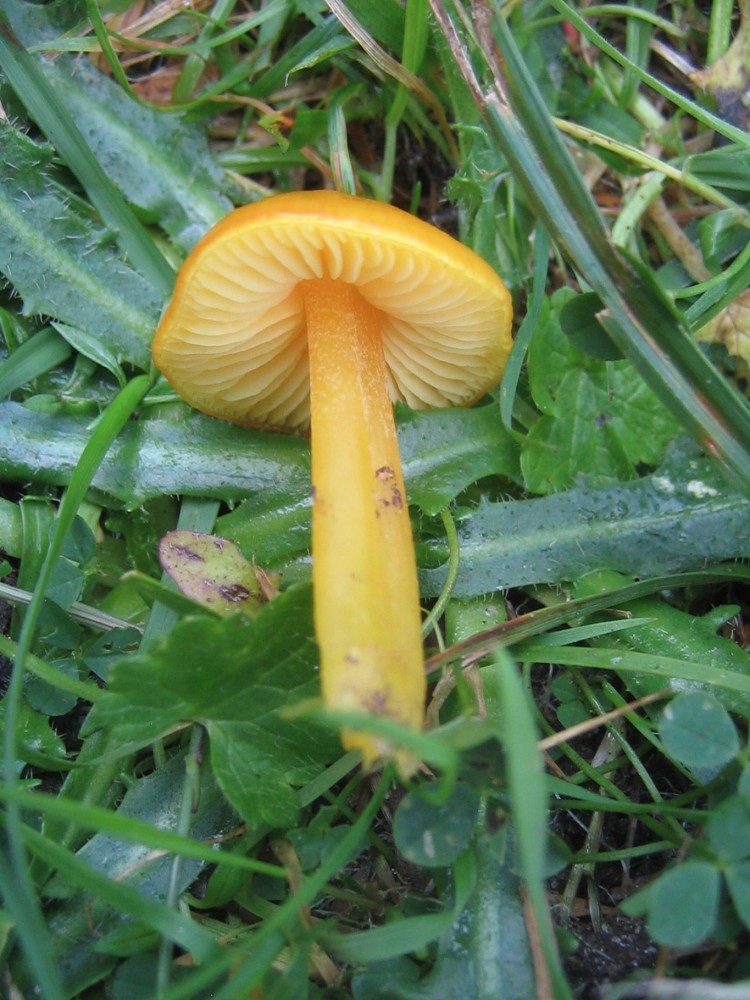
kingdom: Fungi
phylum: Basidiomycota
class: Agaricomycetes
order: Agaricales
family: Hygrophoraceae
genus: Hygrocybe
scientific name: Hygrocybe chlorophana
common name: gul vokshat
